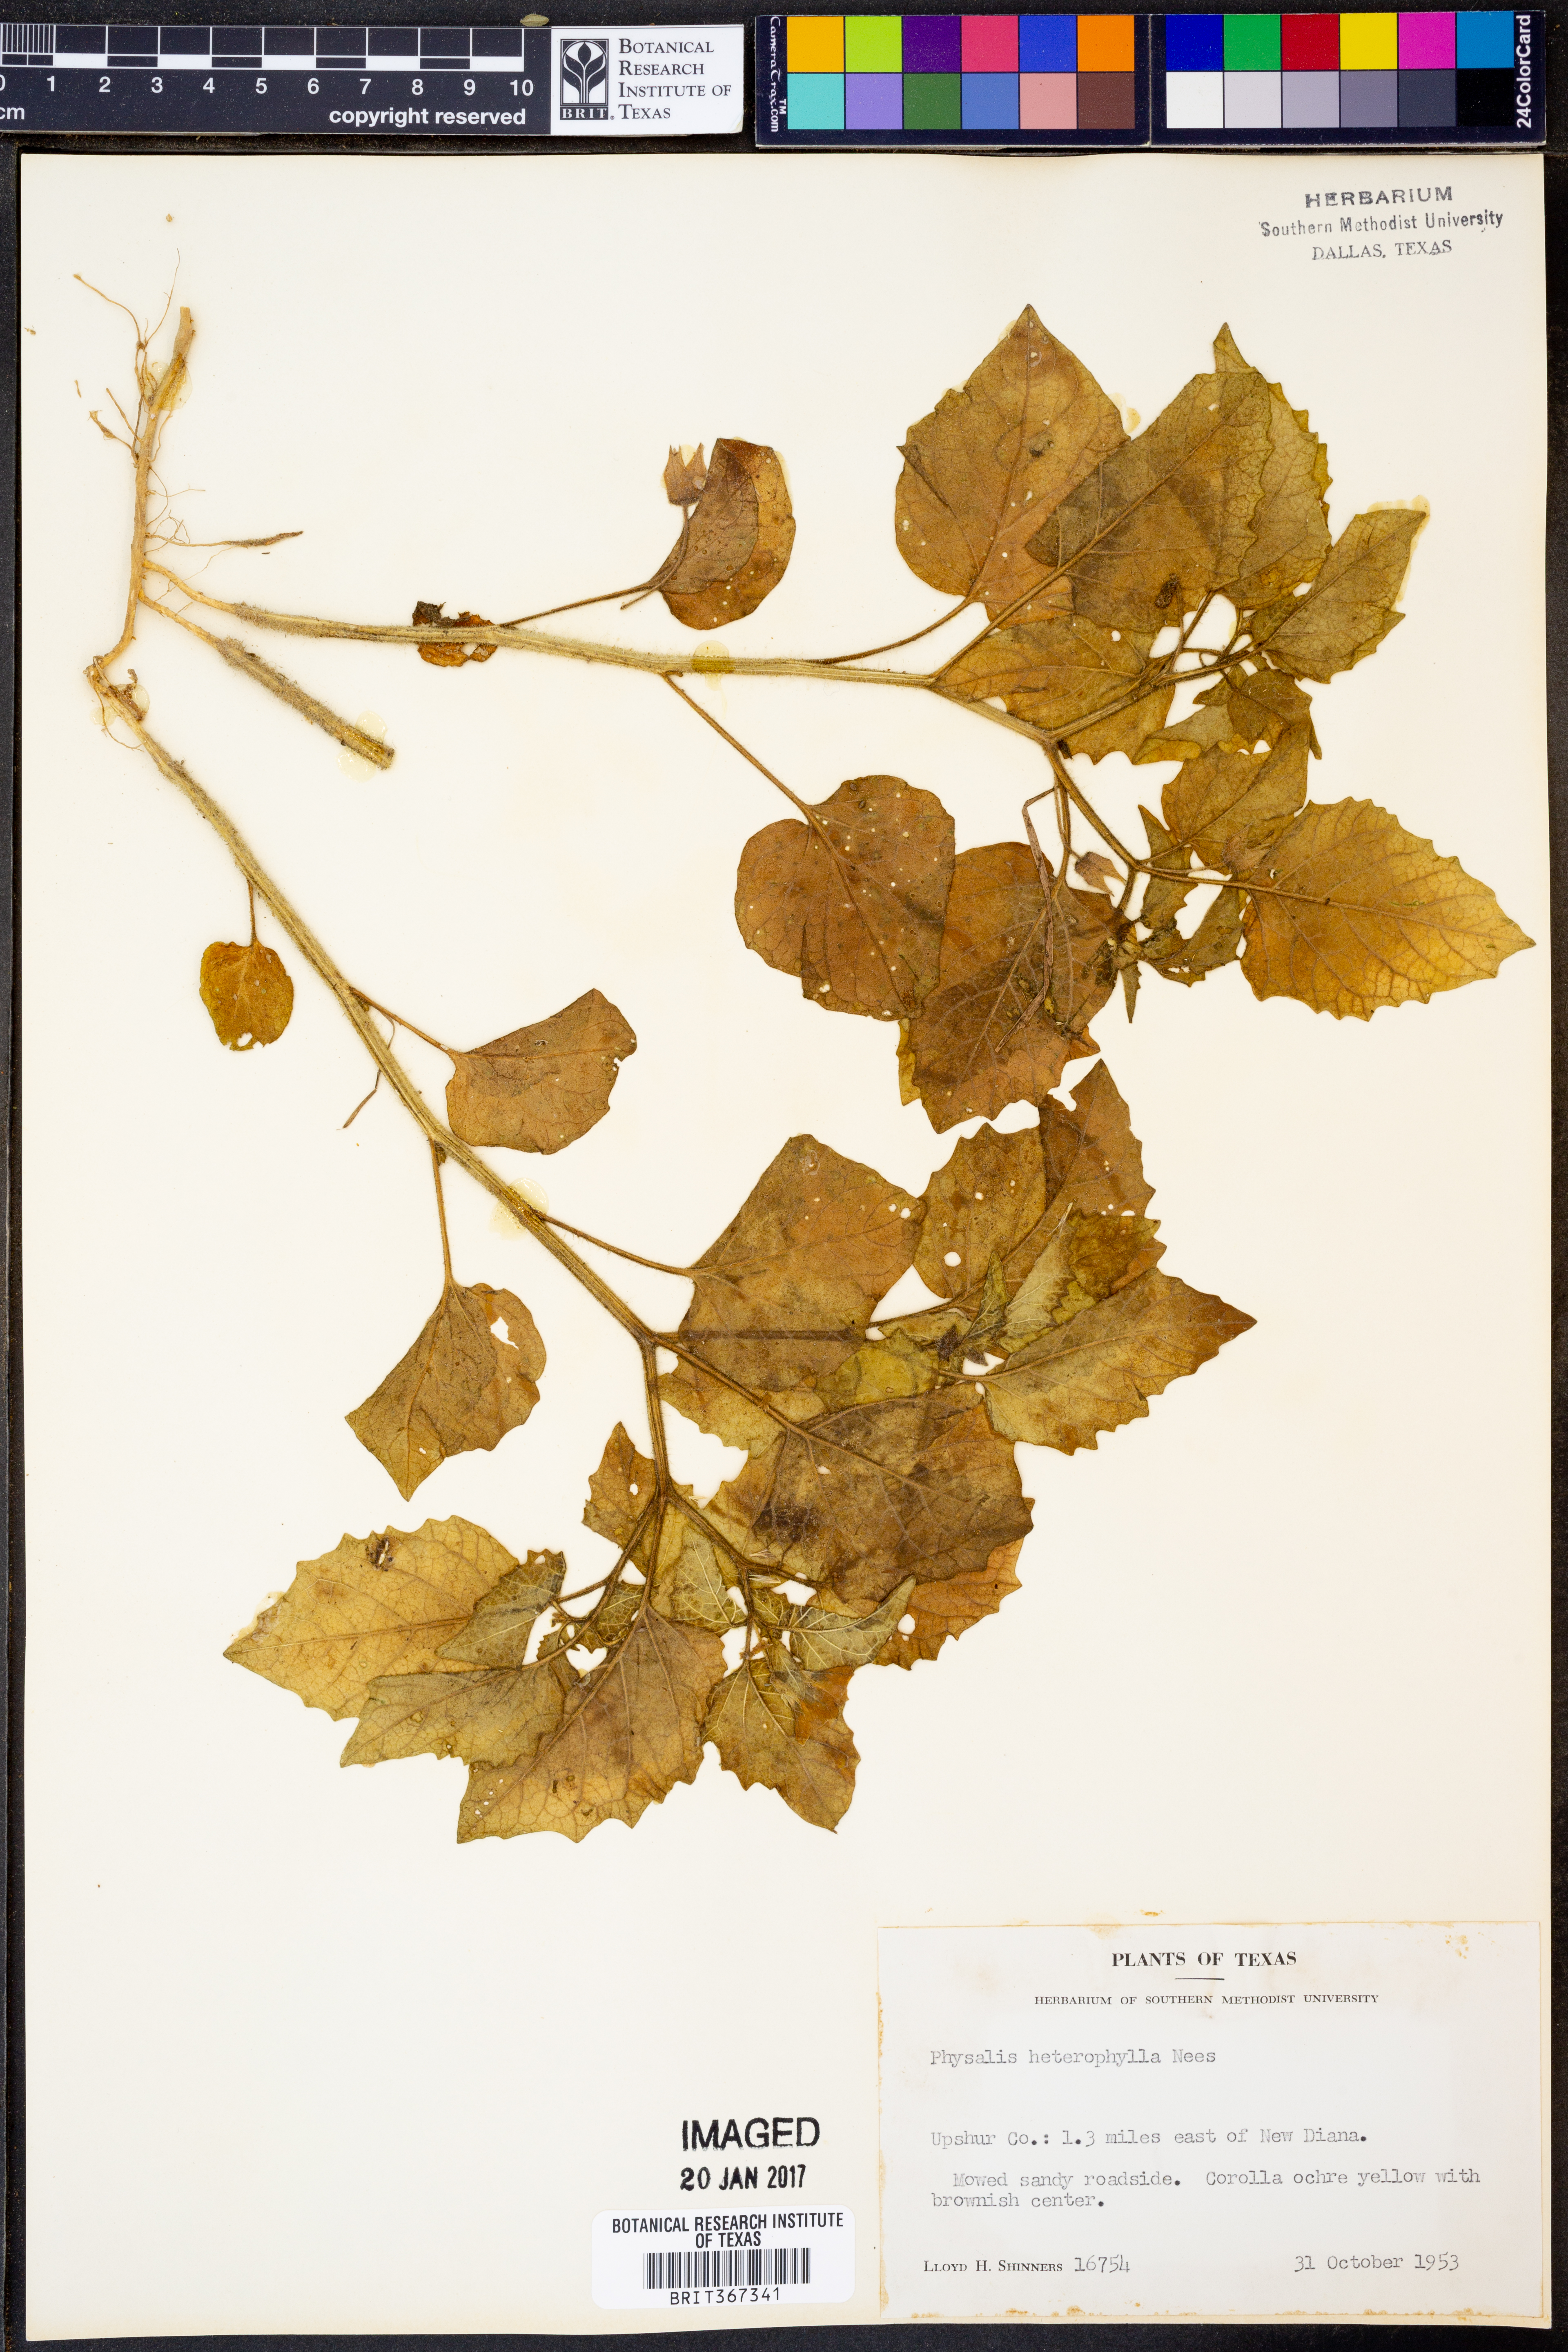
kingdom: Plantae
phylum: Tracheophyta
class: Magnoliopsida
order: Solanales
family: Solanaceae
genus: Physalis
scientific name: Physalis heterophylla
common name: Clammy ground-cherry
